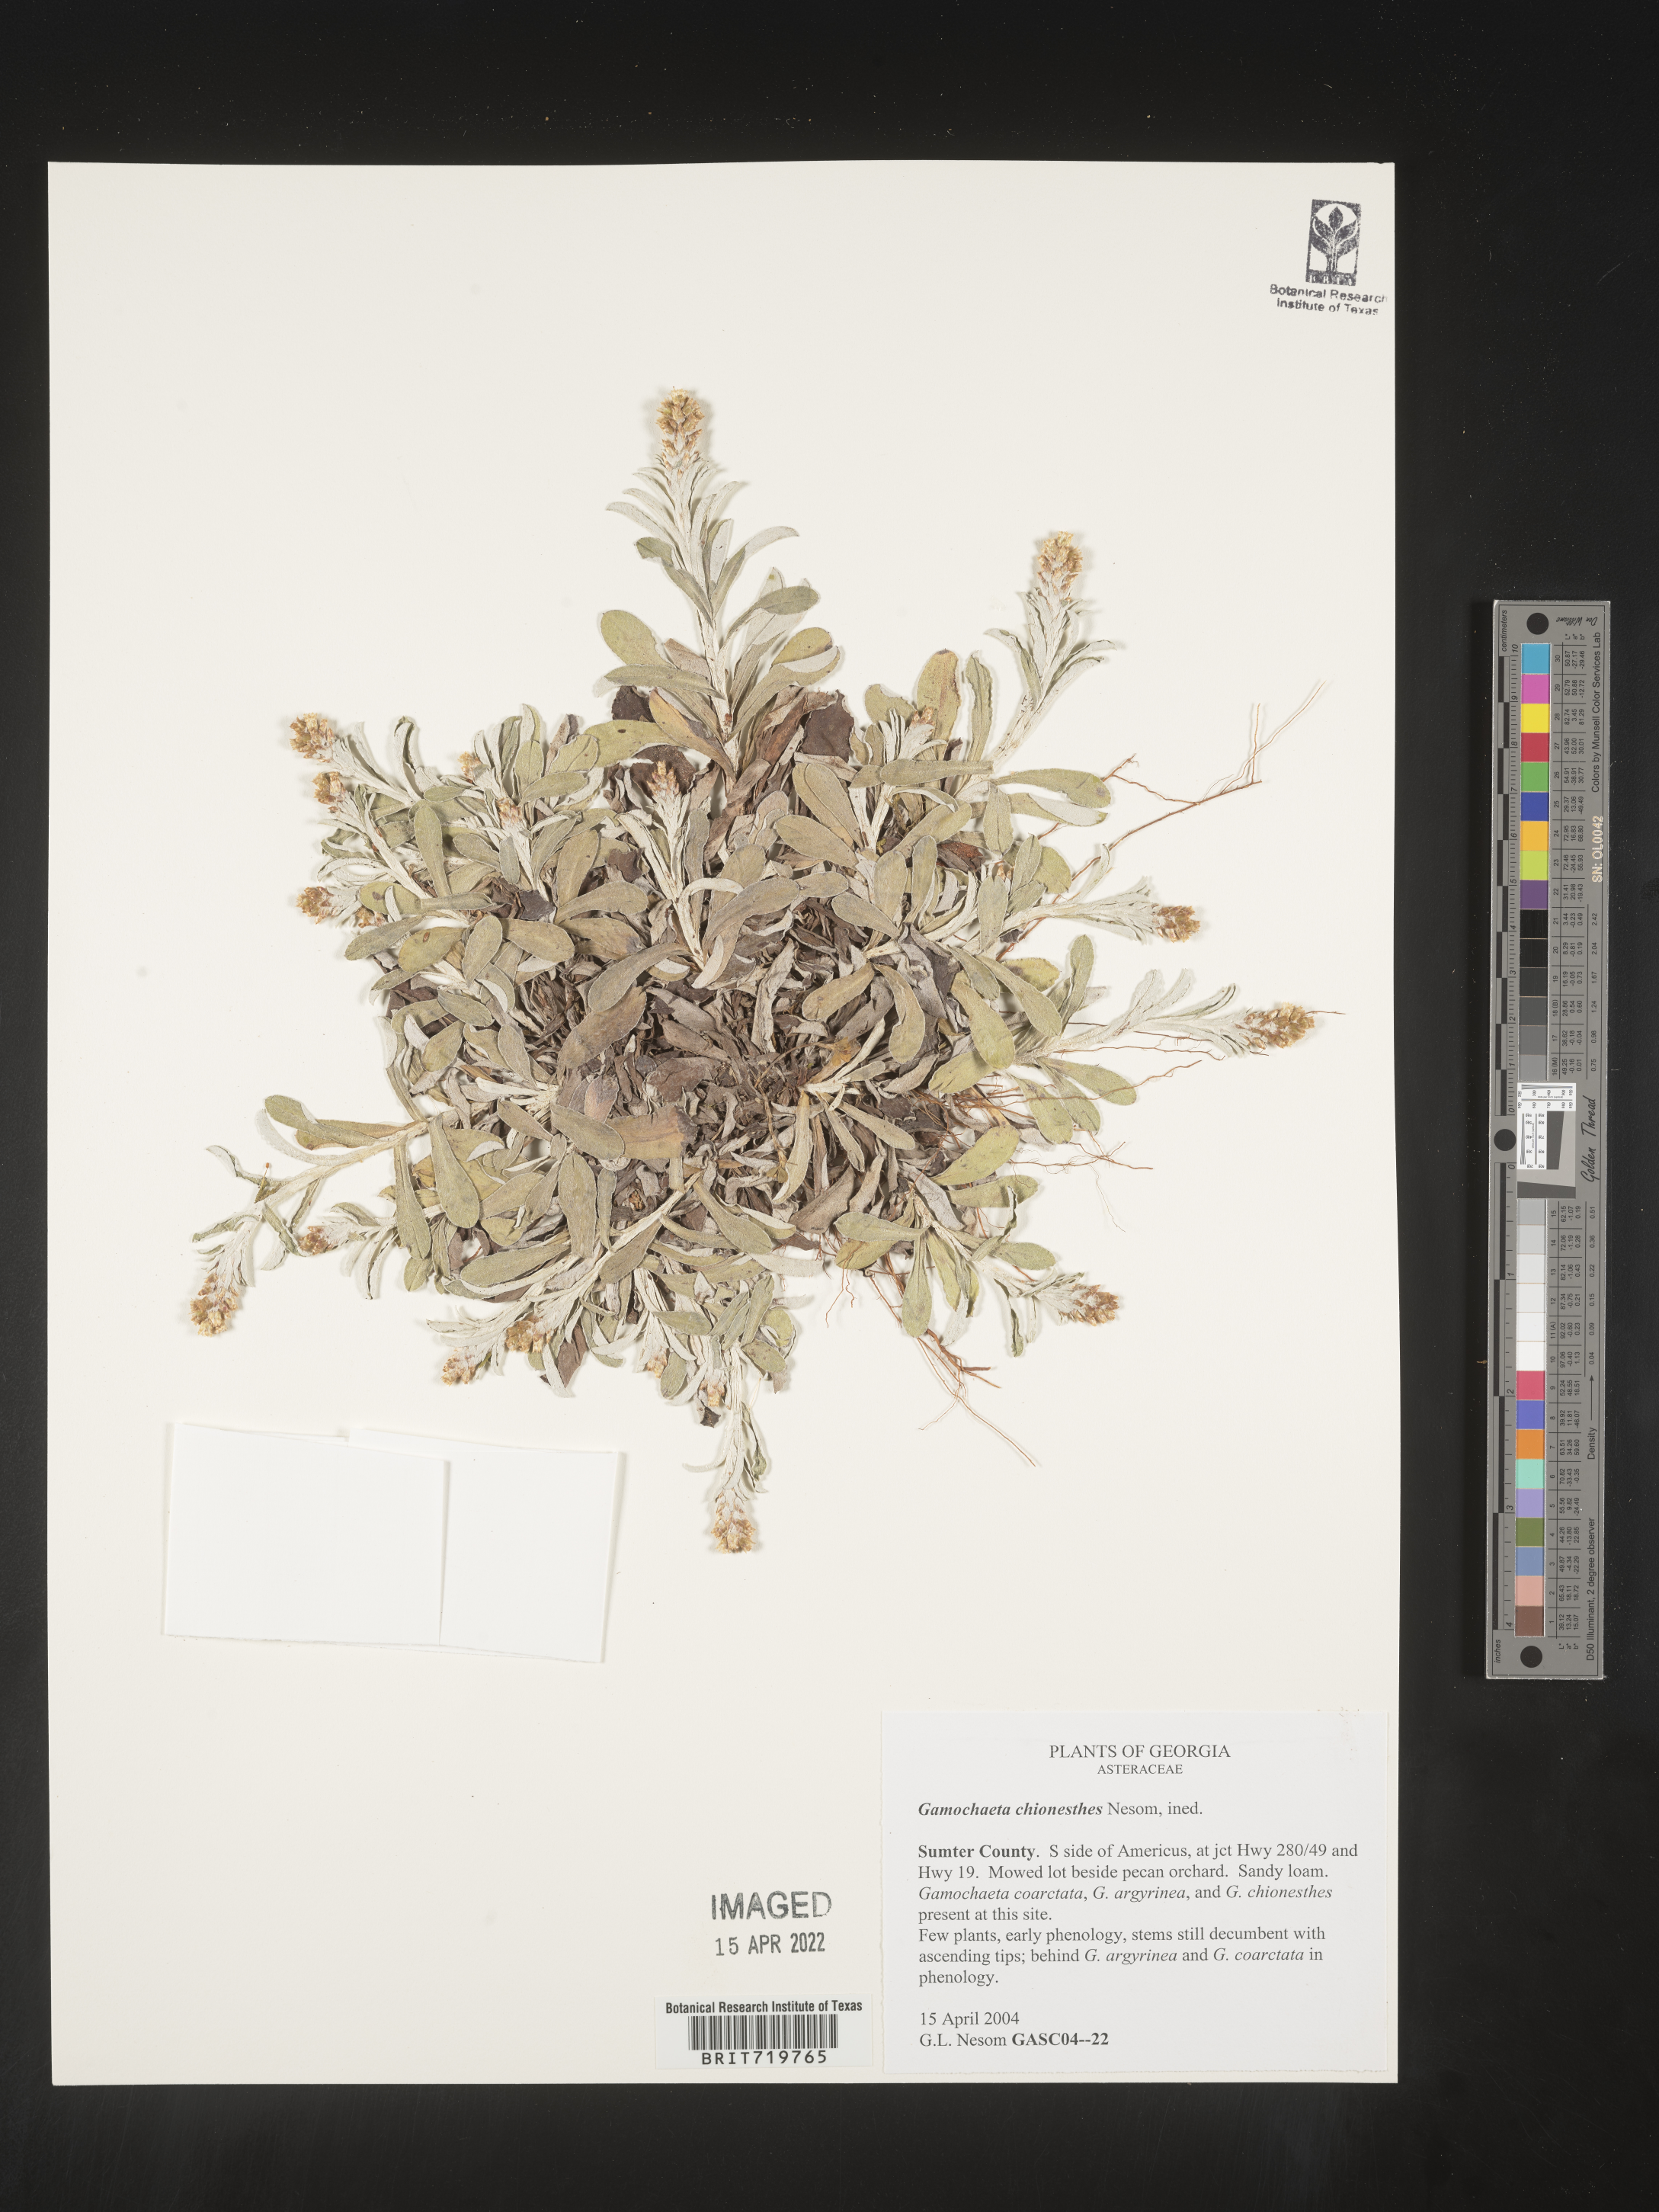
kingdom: Plantae
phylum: Tracheophyta
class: Magnoliopsida
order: Asterales
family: Asteraceae
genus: Gamochaeta
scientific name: Gamochaeta chionesthes
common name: Gray everlasting
